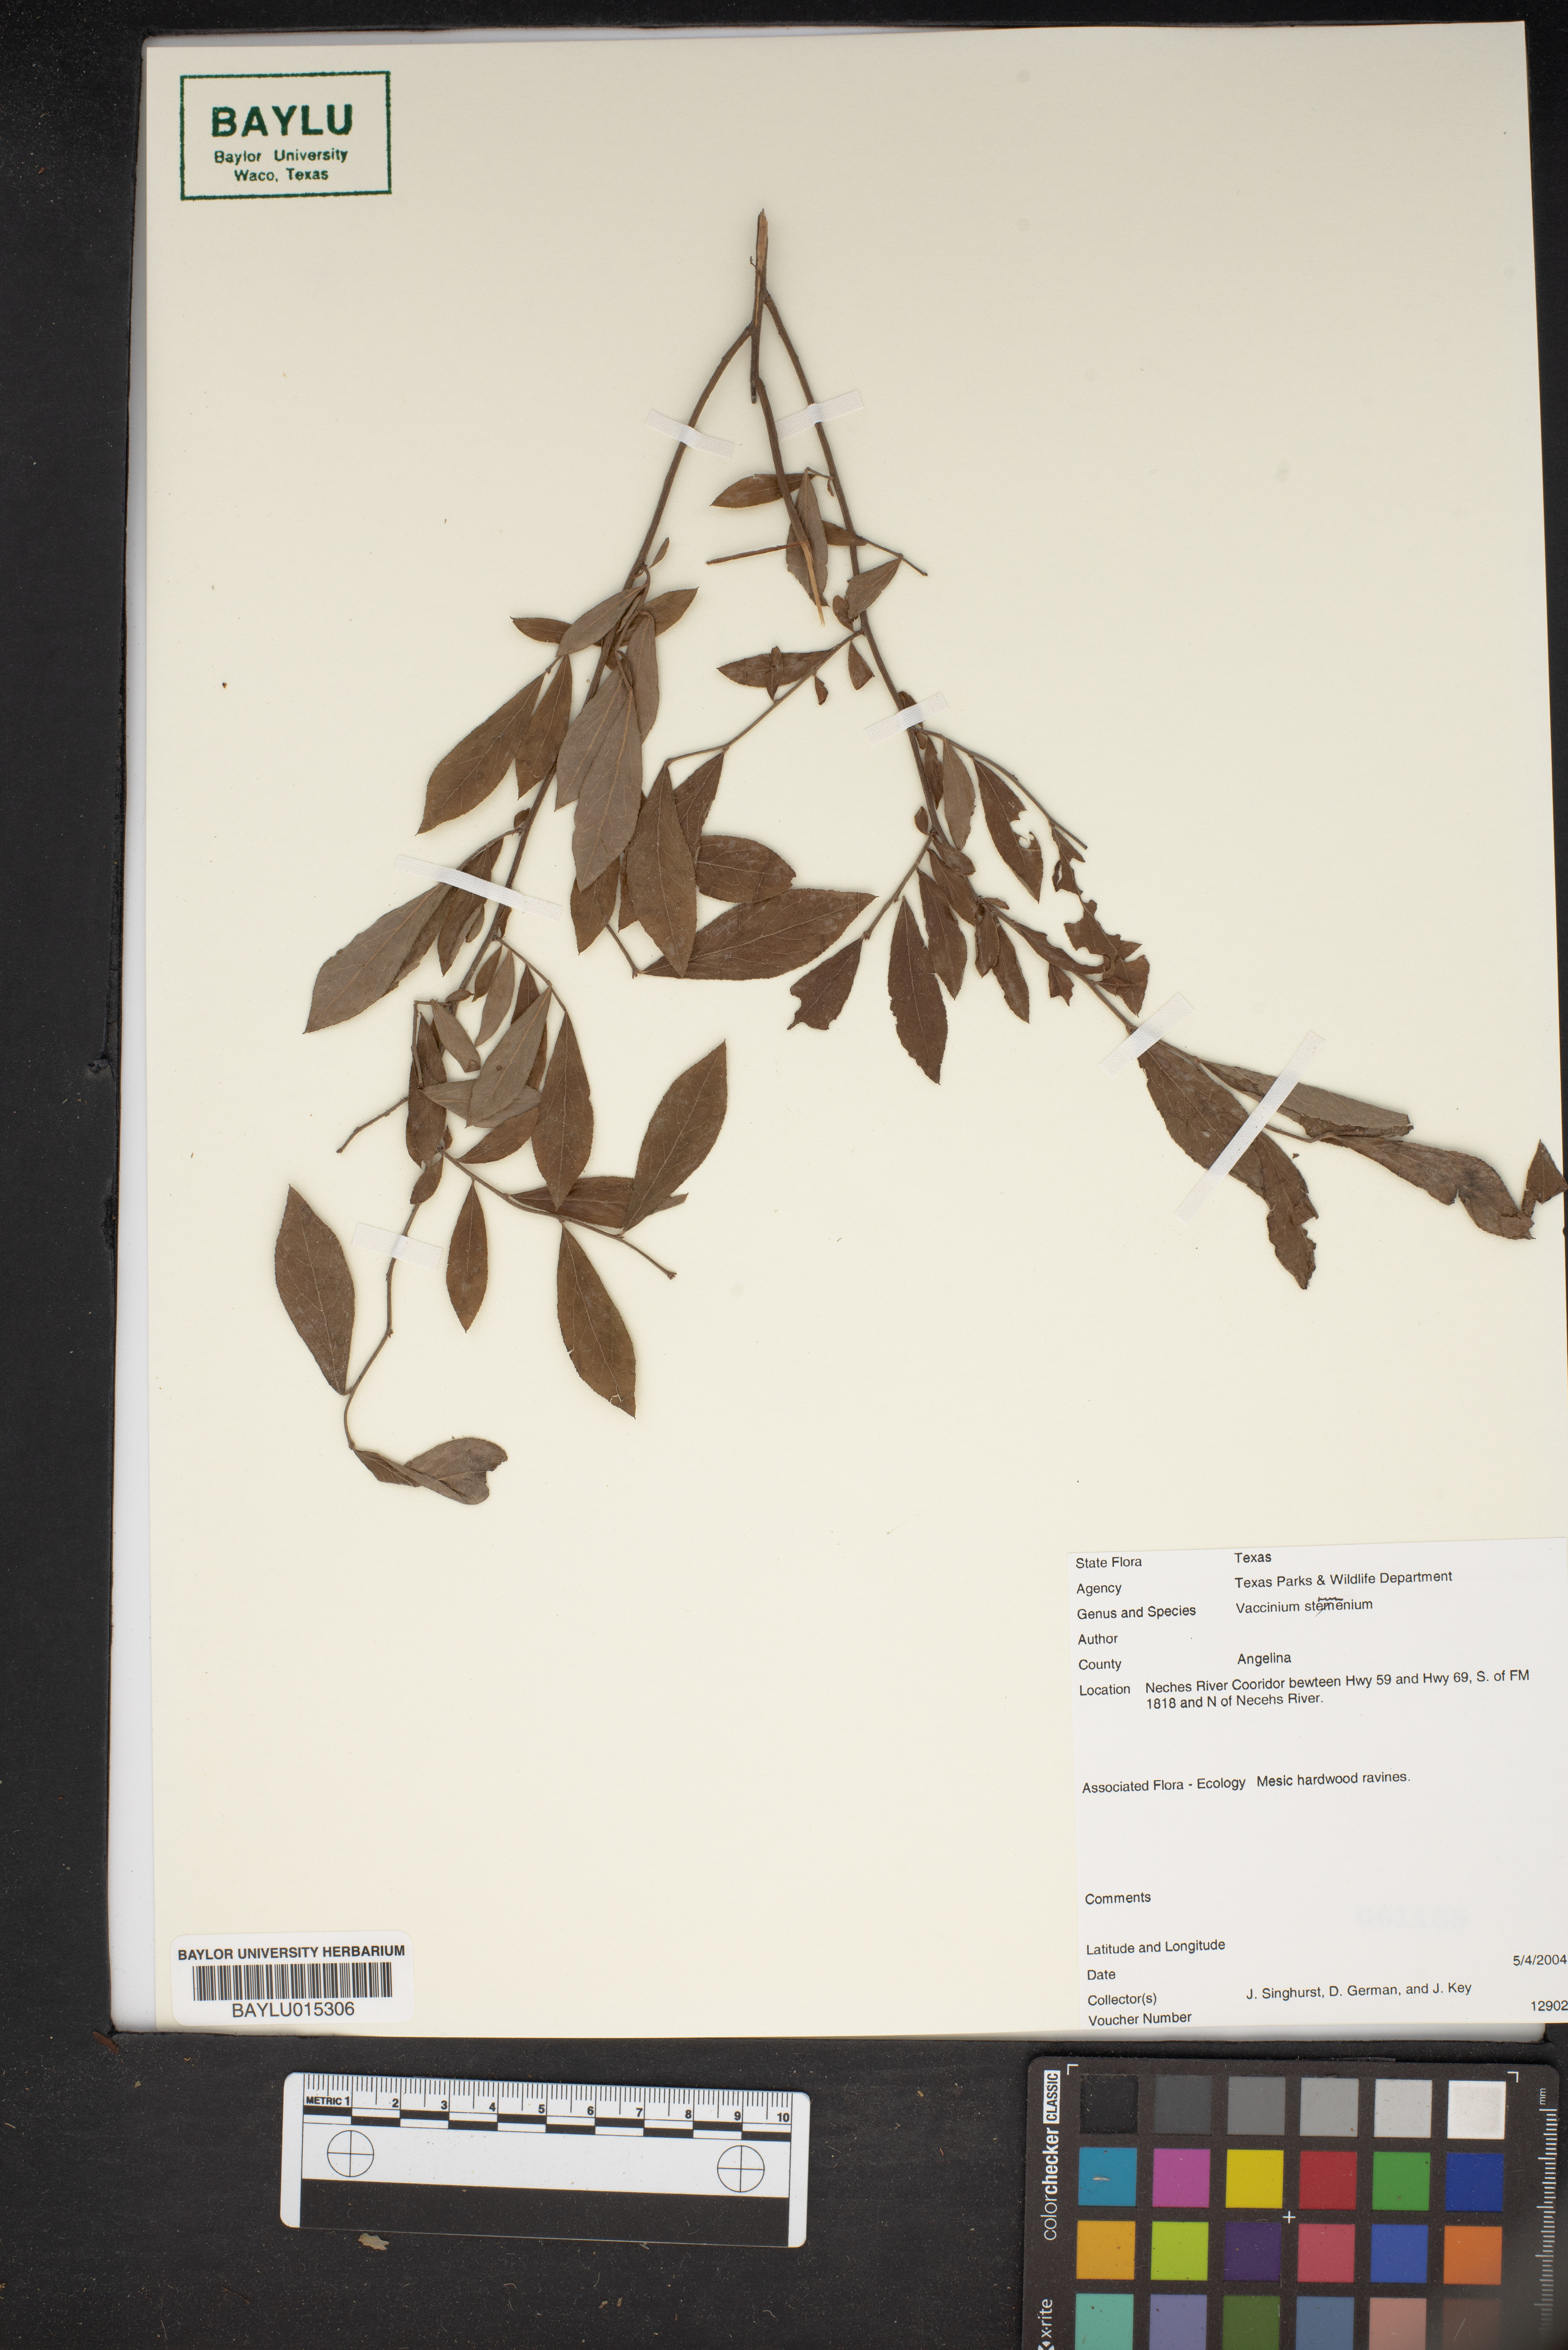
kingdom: Plantae
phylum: Tracheophyta
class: Magnoliopsida
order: Ericales
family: Ericaceae
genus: Vaccinium
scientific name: Vaccinium stamineum
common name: Deerberry
